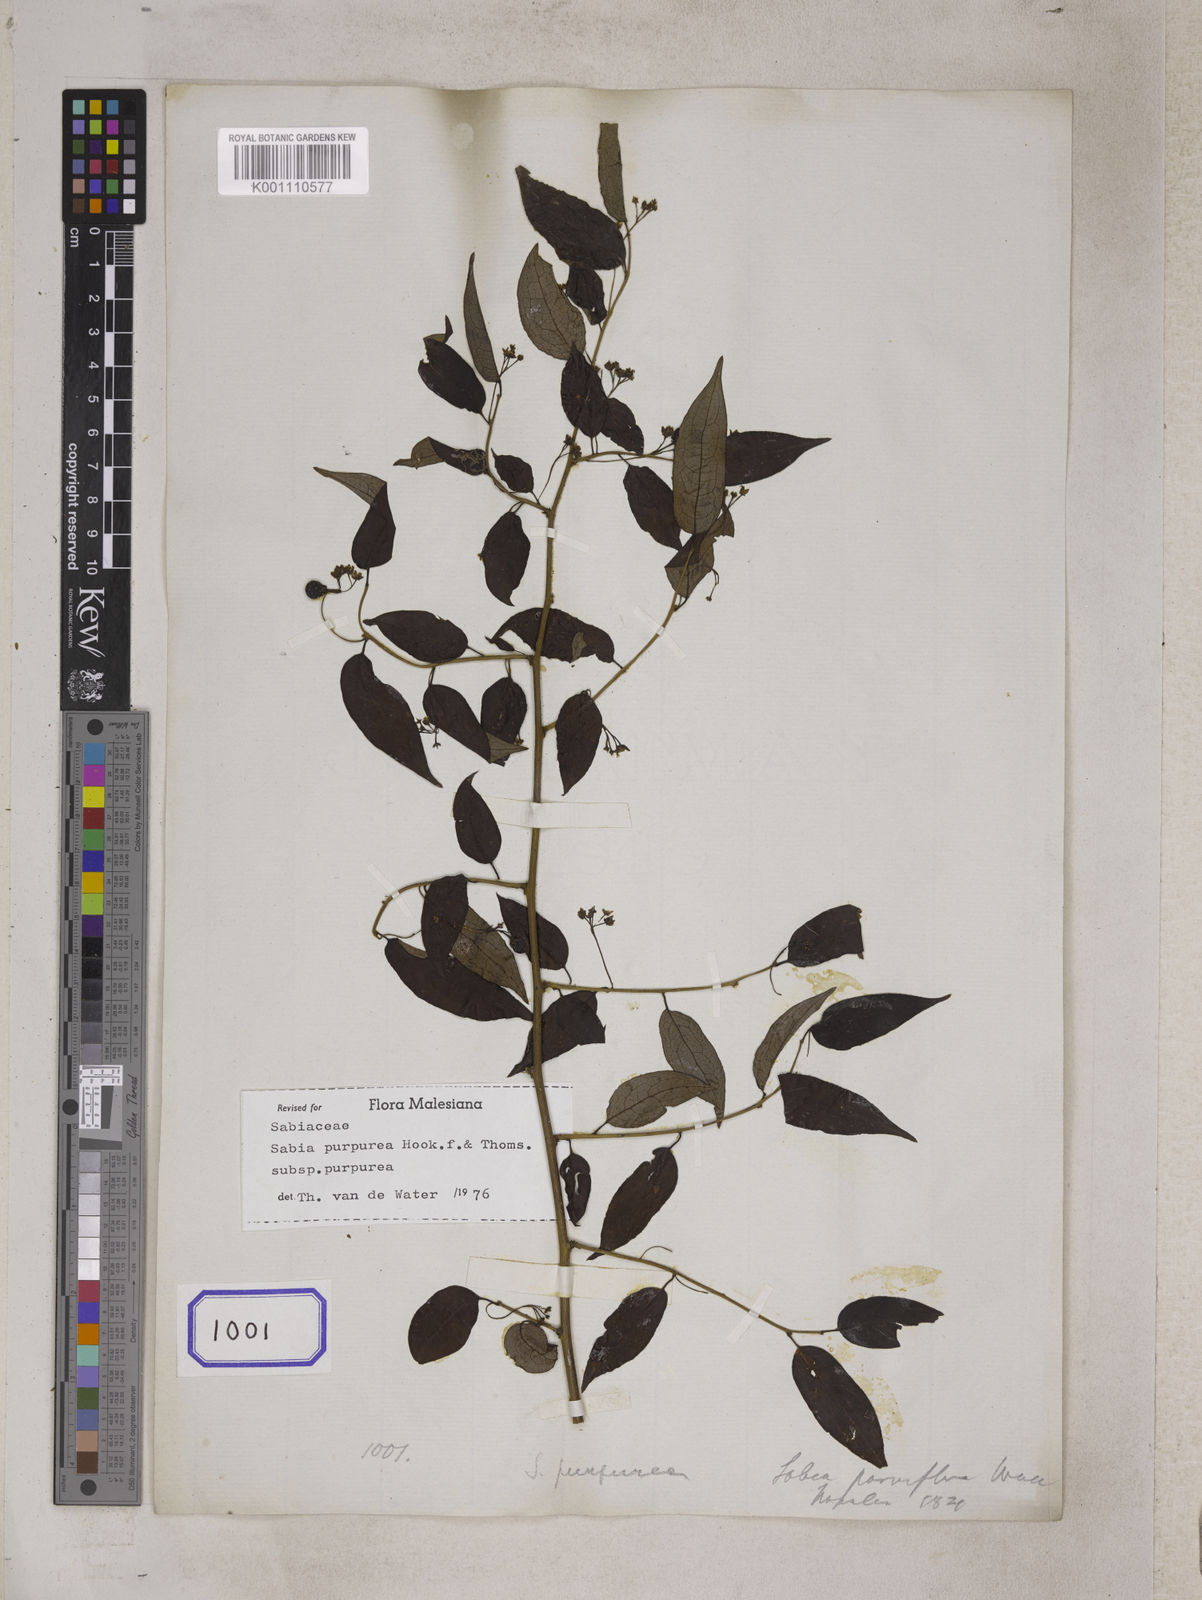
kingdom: Plantae
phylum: Tracheophyta
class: Magnoliopsida
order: Proteales
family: Sabiaceae
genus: Sabia
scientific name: Sabia parviflora
